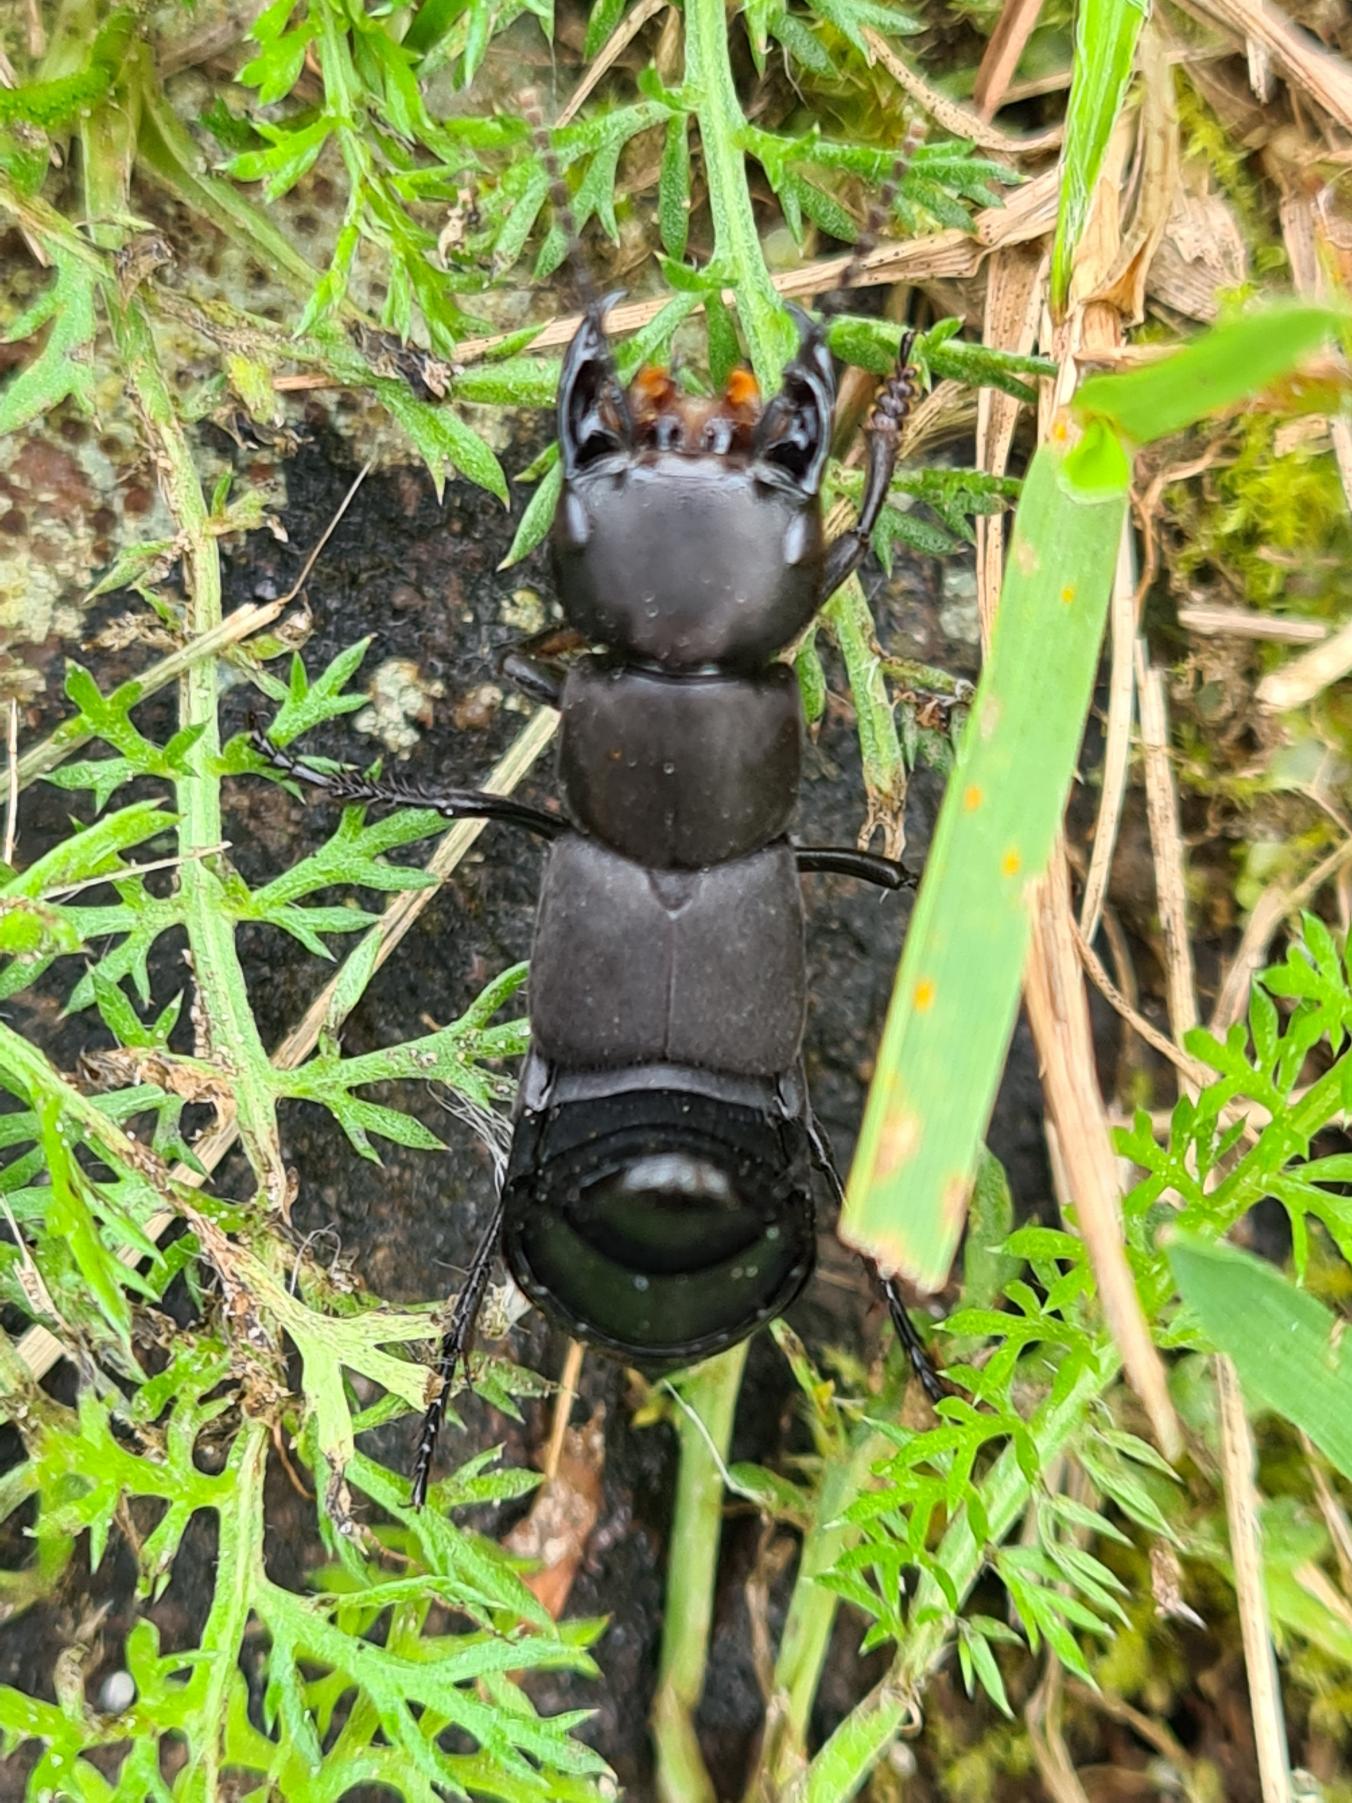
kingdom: Animalia
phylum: Arthropoda
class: Insecta
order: Coleoptera
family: Staphylinidae
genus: Ocypus
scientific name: Ocypus olens
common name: Stor rovbille
